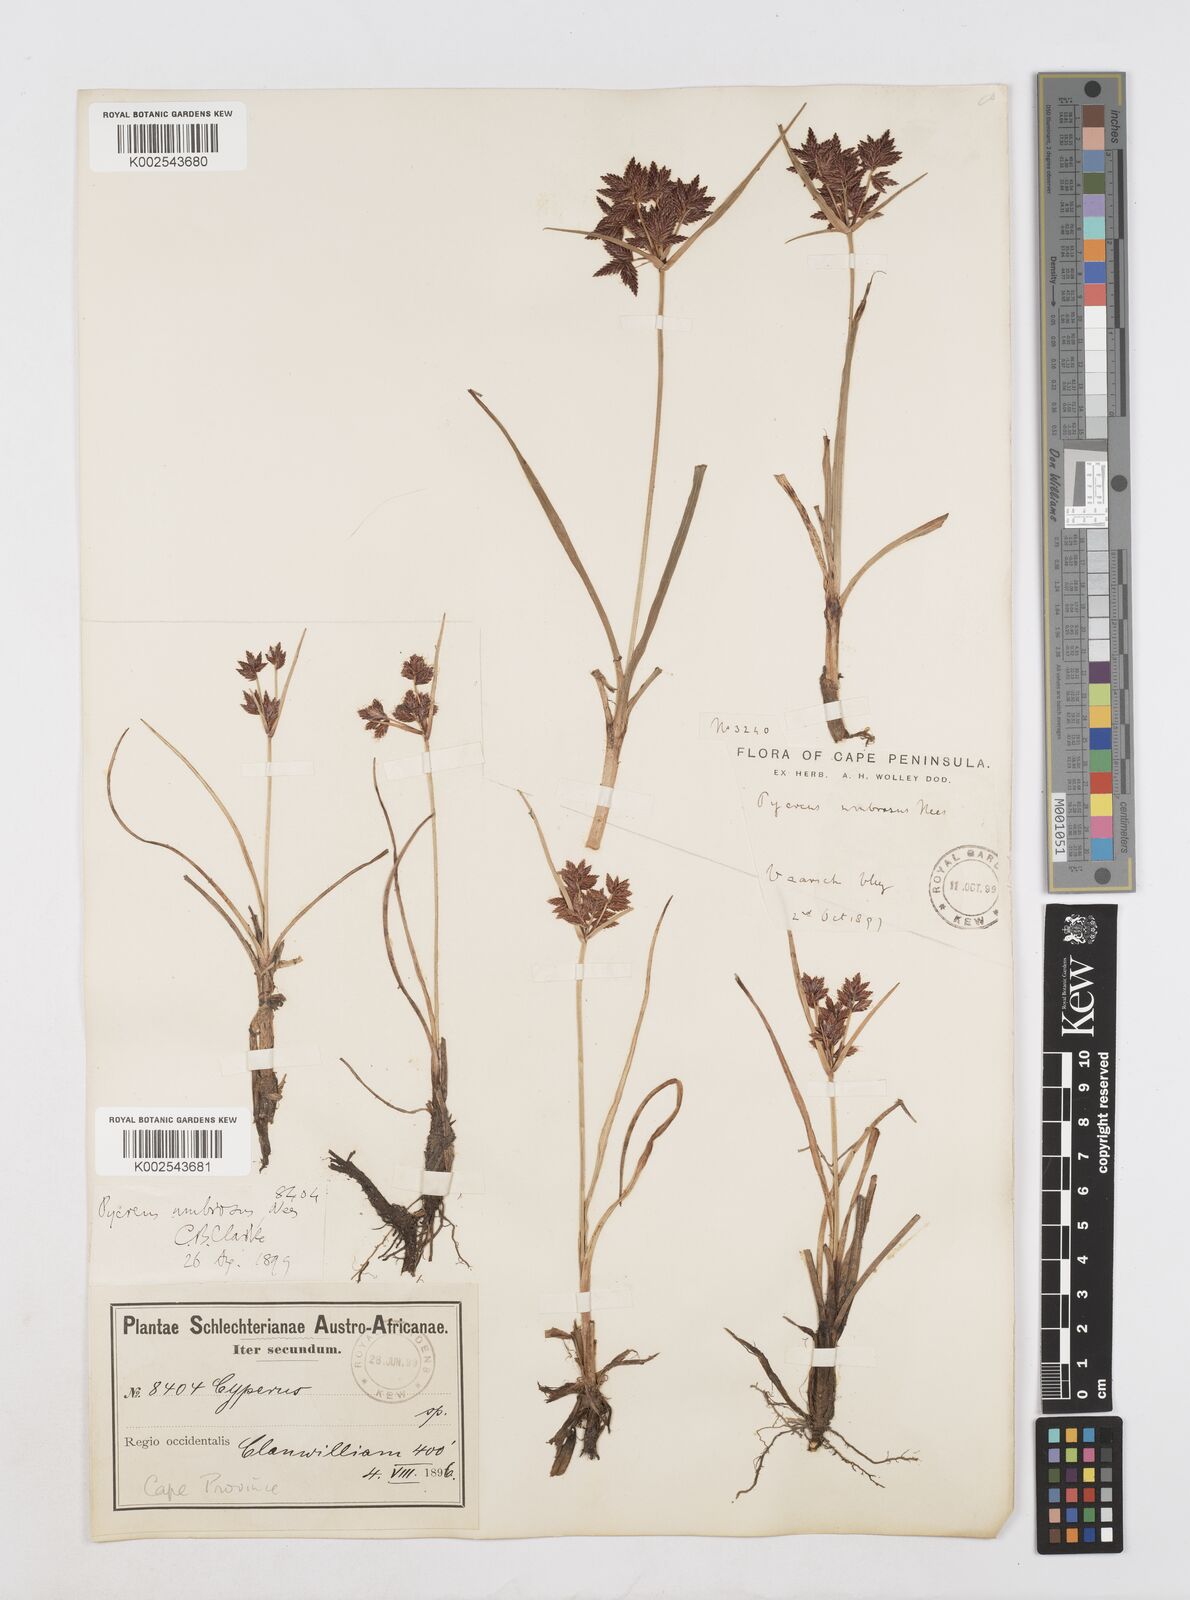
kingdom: Plantae
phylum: Tracheophyta
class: Liliopsida
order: Poales
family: Cyperaceae
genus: Cyperus
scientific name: Cyperus nitidus
